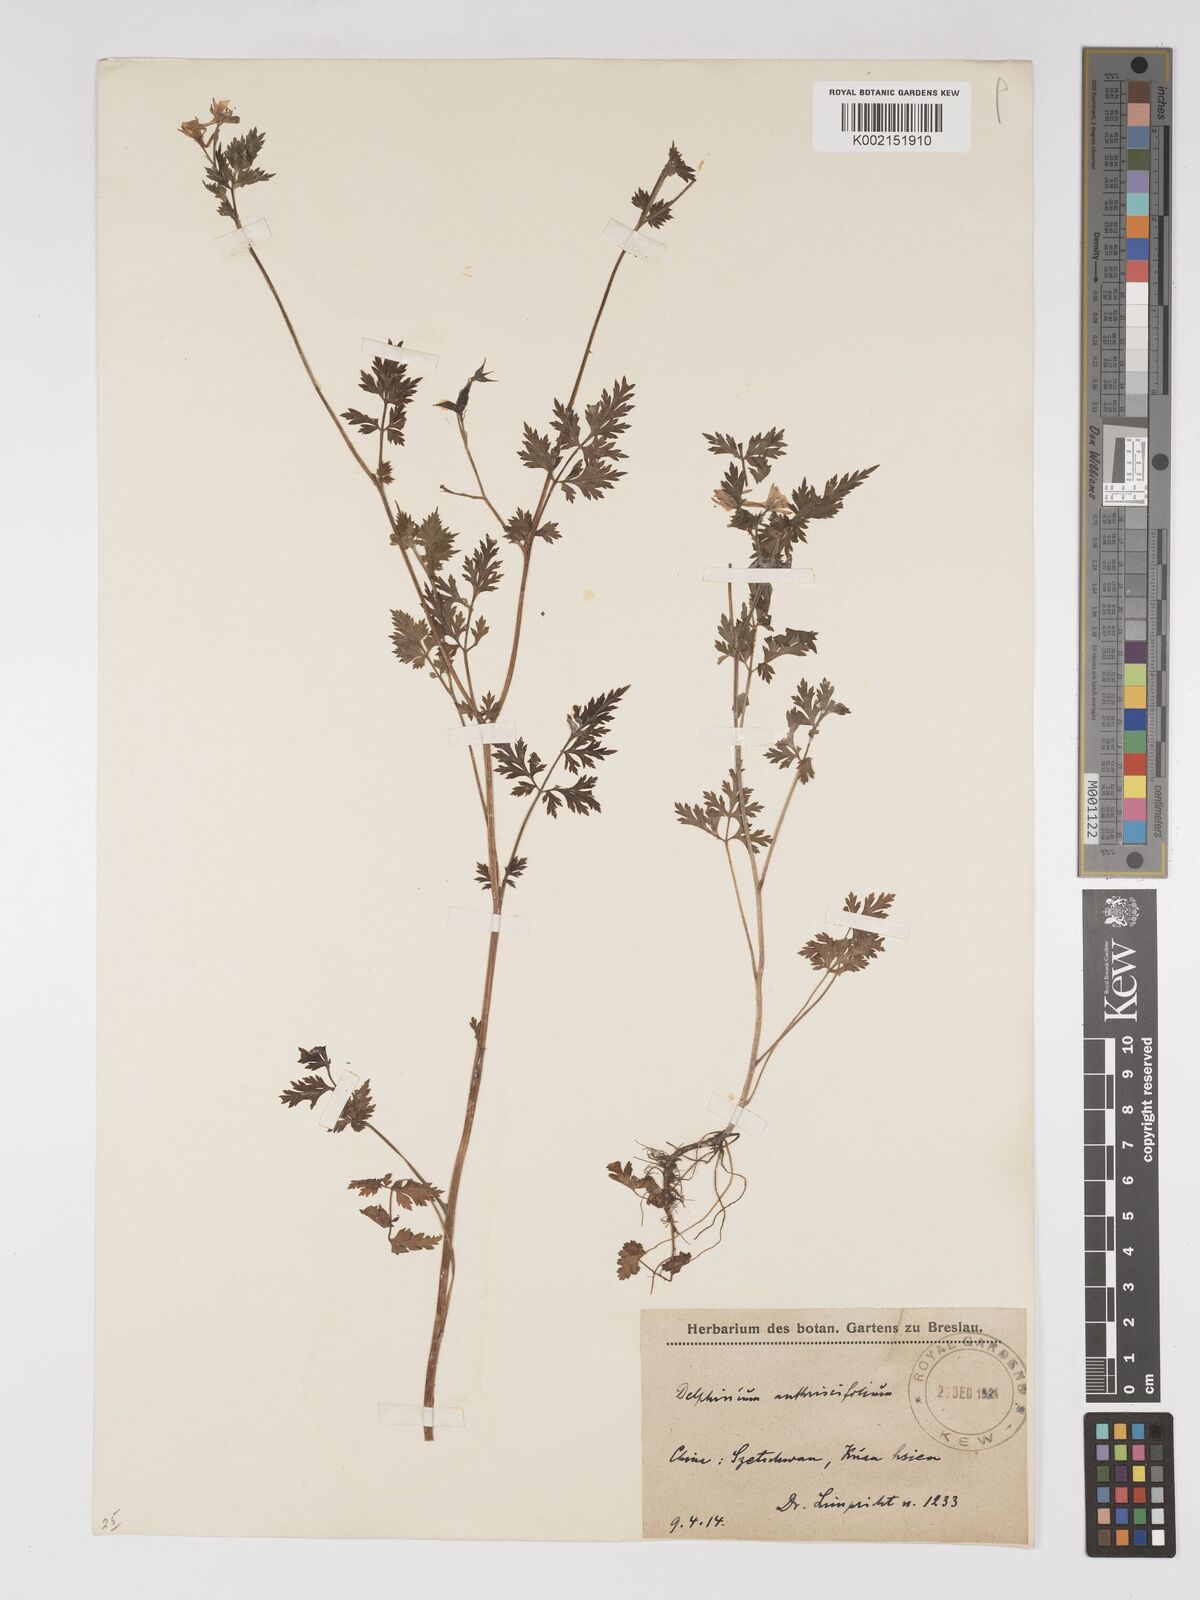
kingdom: Plantae
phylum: Tracheophyta
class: Magnoliopsida
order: Ranunculales
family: Ranunculaceae
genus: Delphinium
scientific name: Delphinium anthriscifolium
